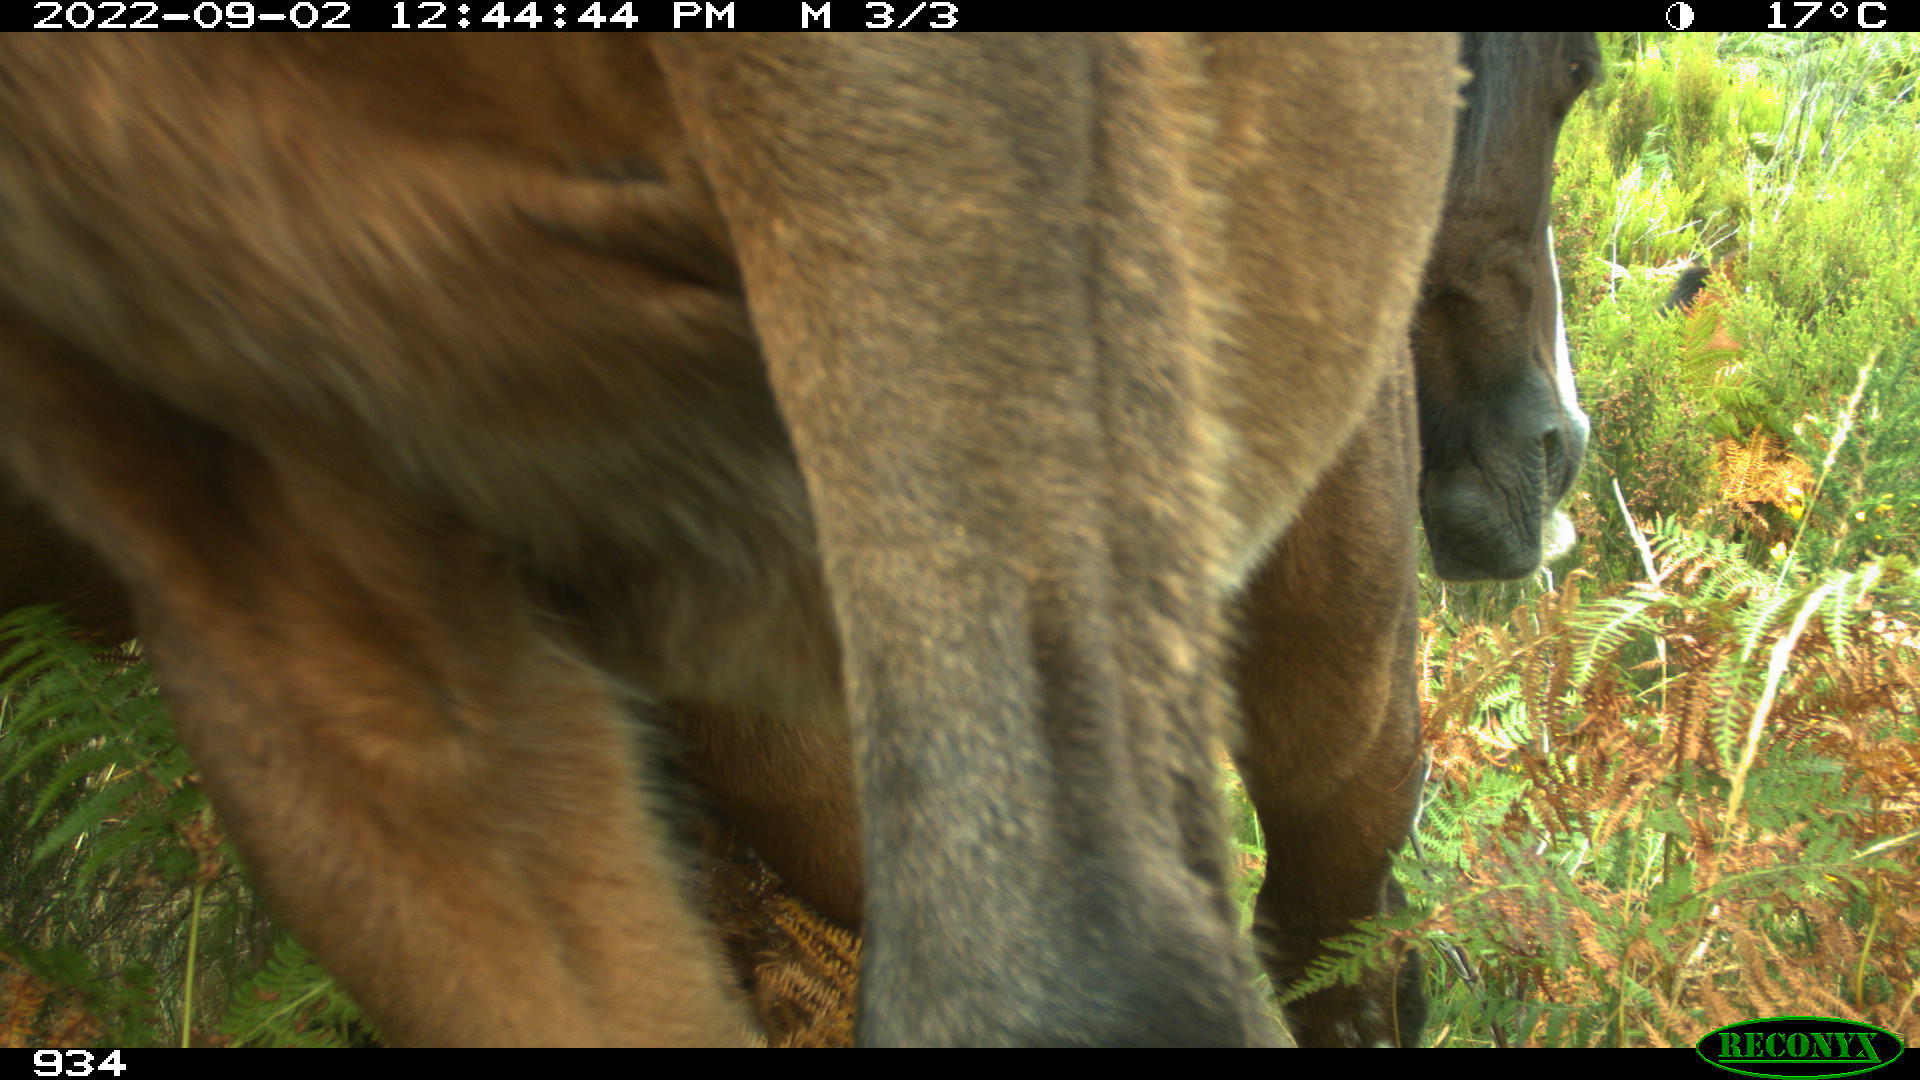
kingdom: Animalia
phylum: Chordata
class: Mammalia
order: Perissodactyla
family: Equidae
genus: Equus
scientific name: Equus caballus
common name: Horse
